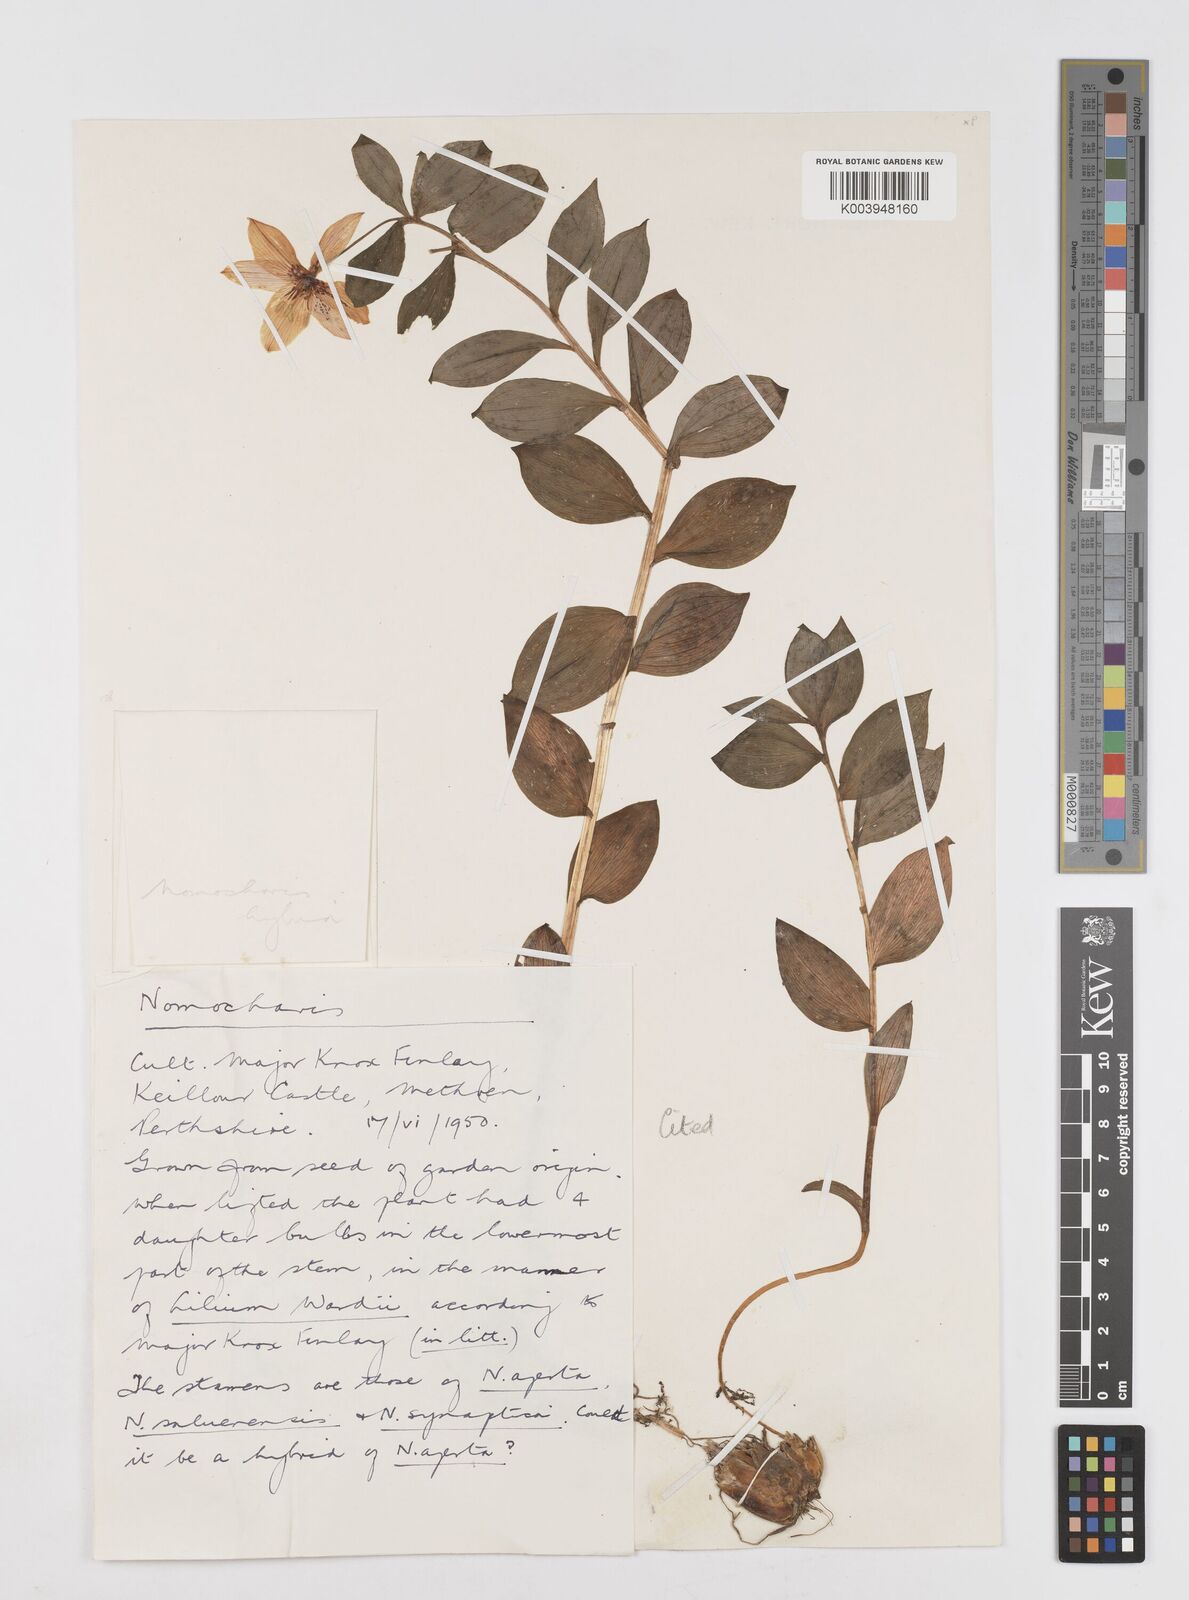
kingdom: Plantae
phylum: Tracheophyta
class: Liliopsida
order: Liliales
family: Liliaceae
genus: Lilium
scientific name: Lilium saluenense
